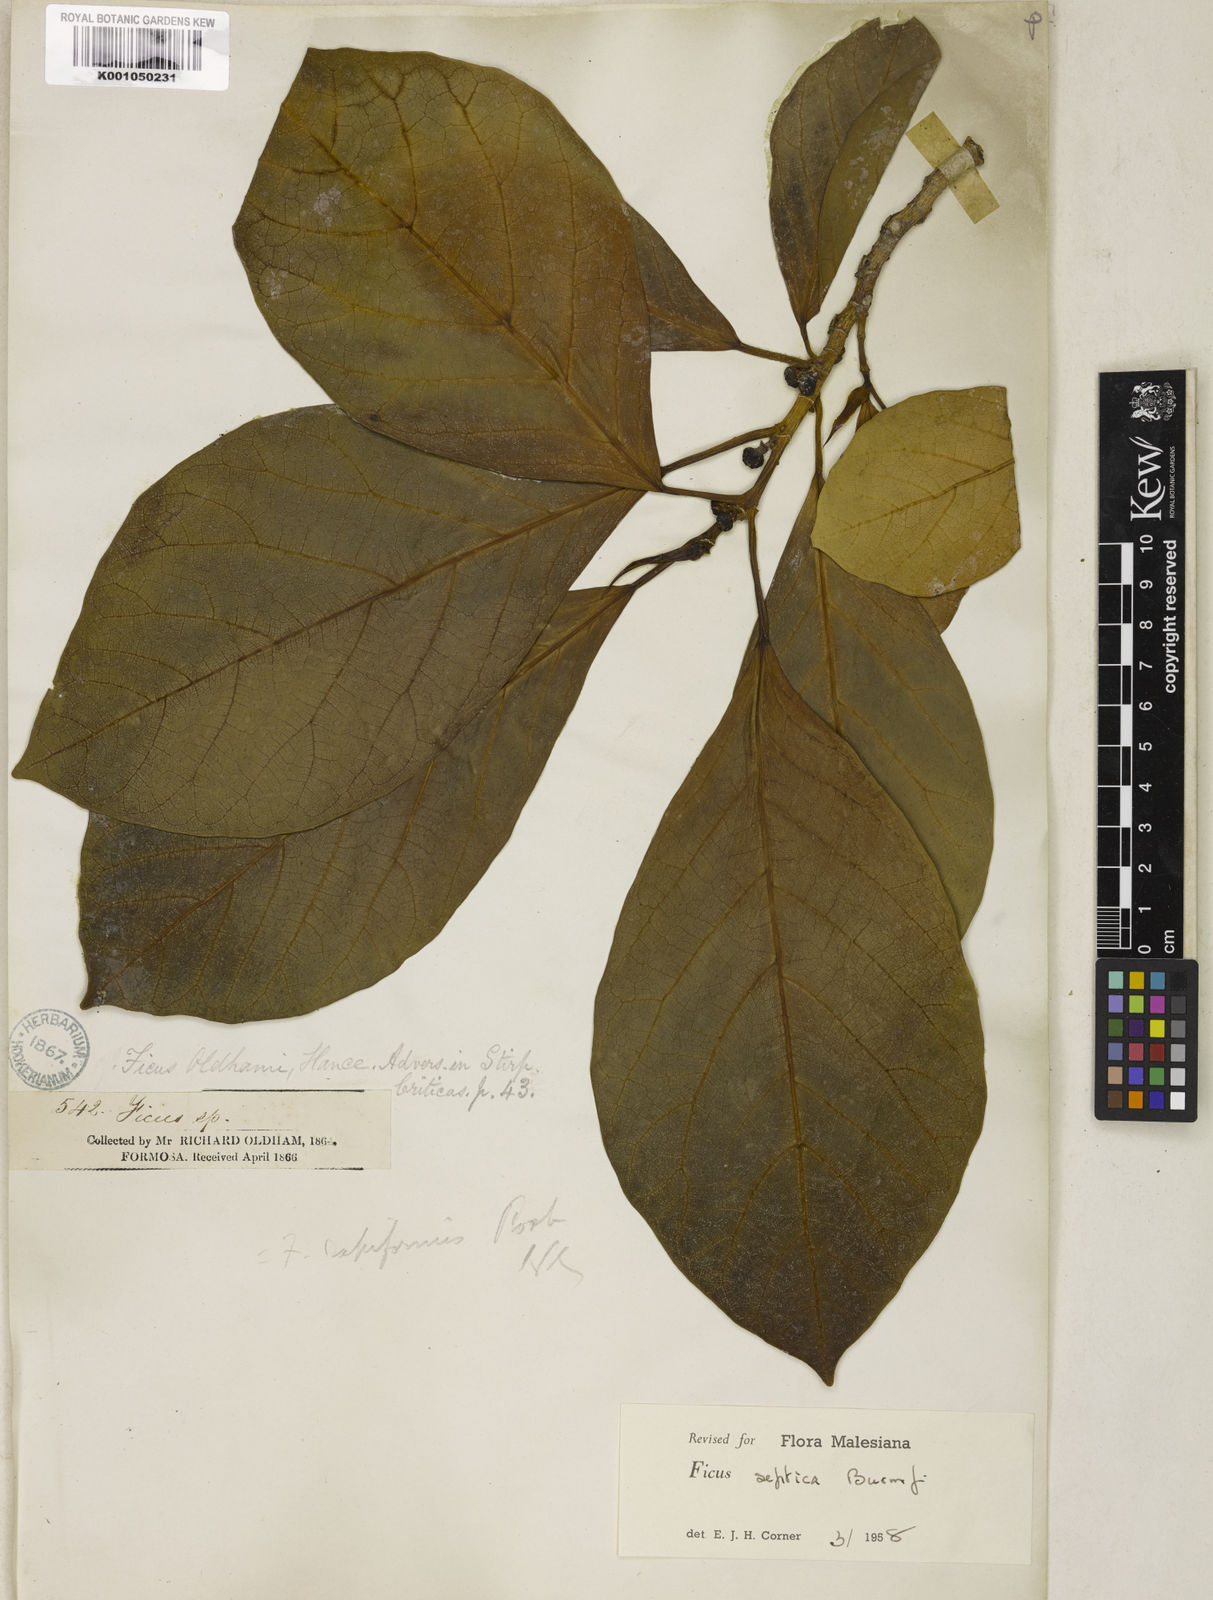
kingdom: Plantae
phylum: Tracheophyta
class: Magnoliopsida
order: Rosales
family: Moraceae
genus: Ficus
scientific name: Ficus septica
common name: Septic fig
